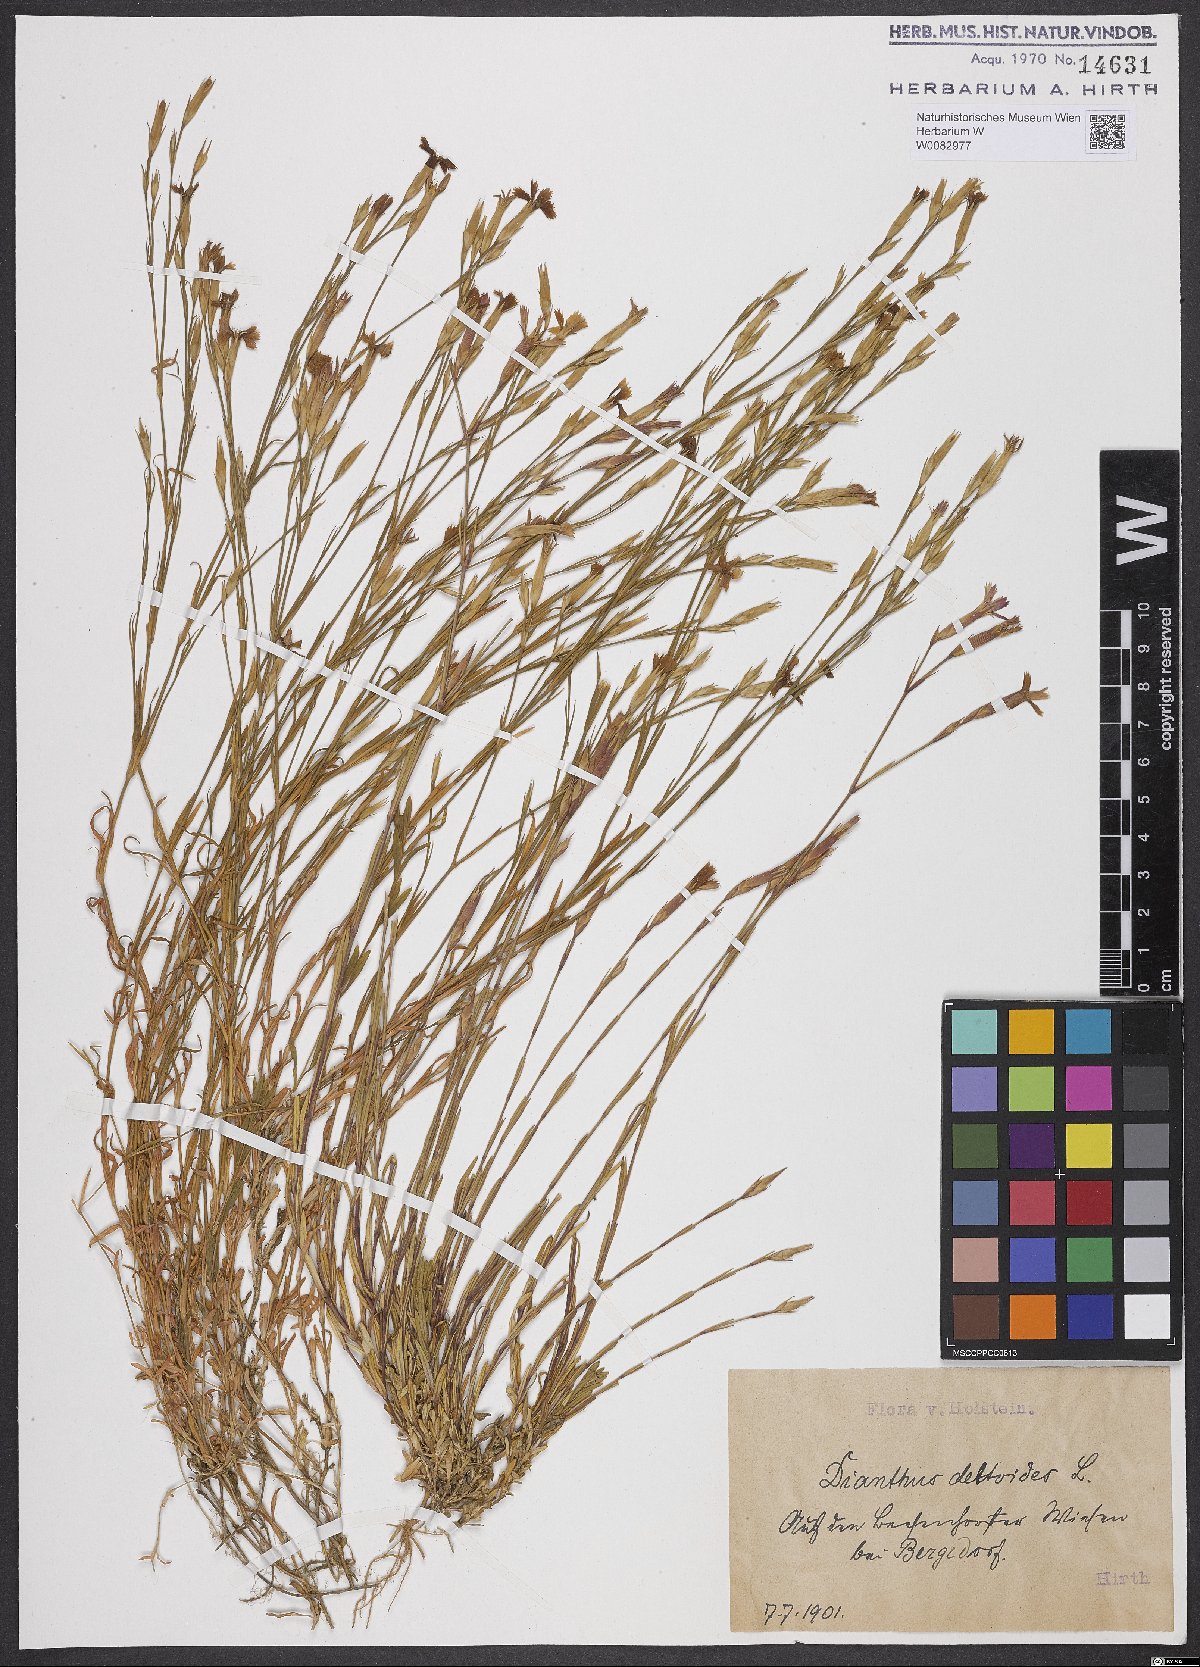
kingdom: Plantae
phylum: Tracheophyta
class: Magnoliopsida
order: Caryophyllales
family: Caryophyllaceae
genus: Dianthus
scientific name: Dianthus deltoides
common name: Maiden pink
